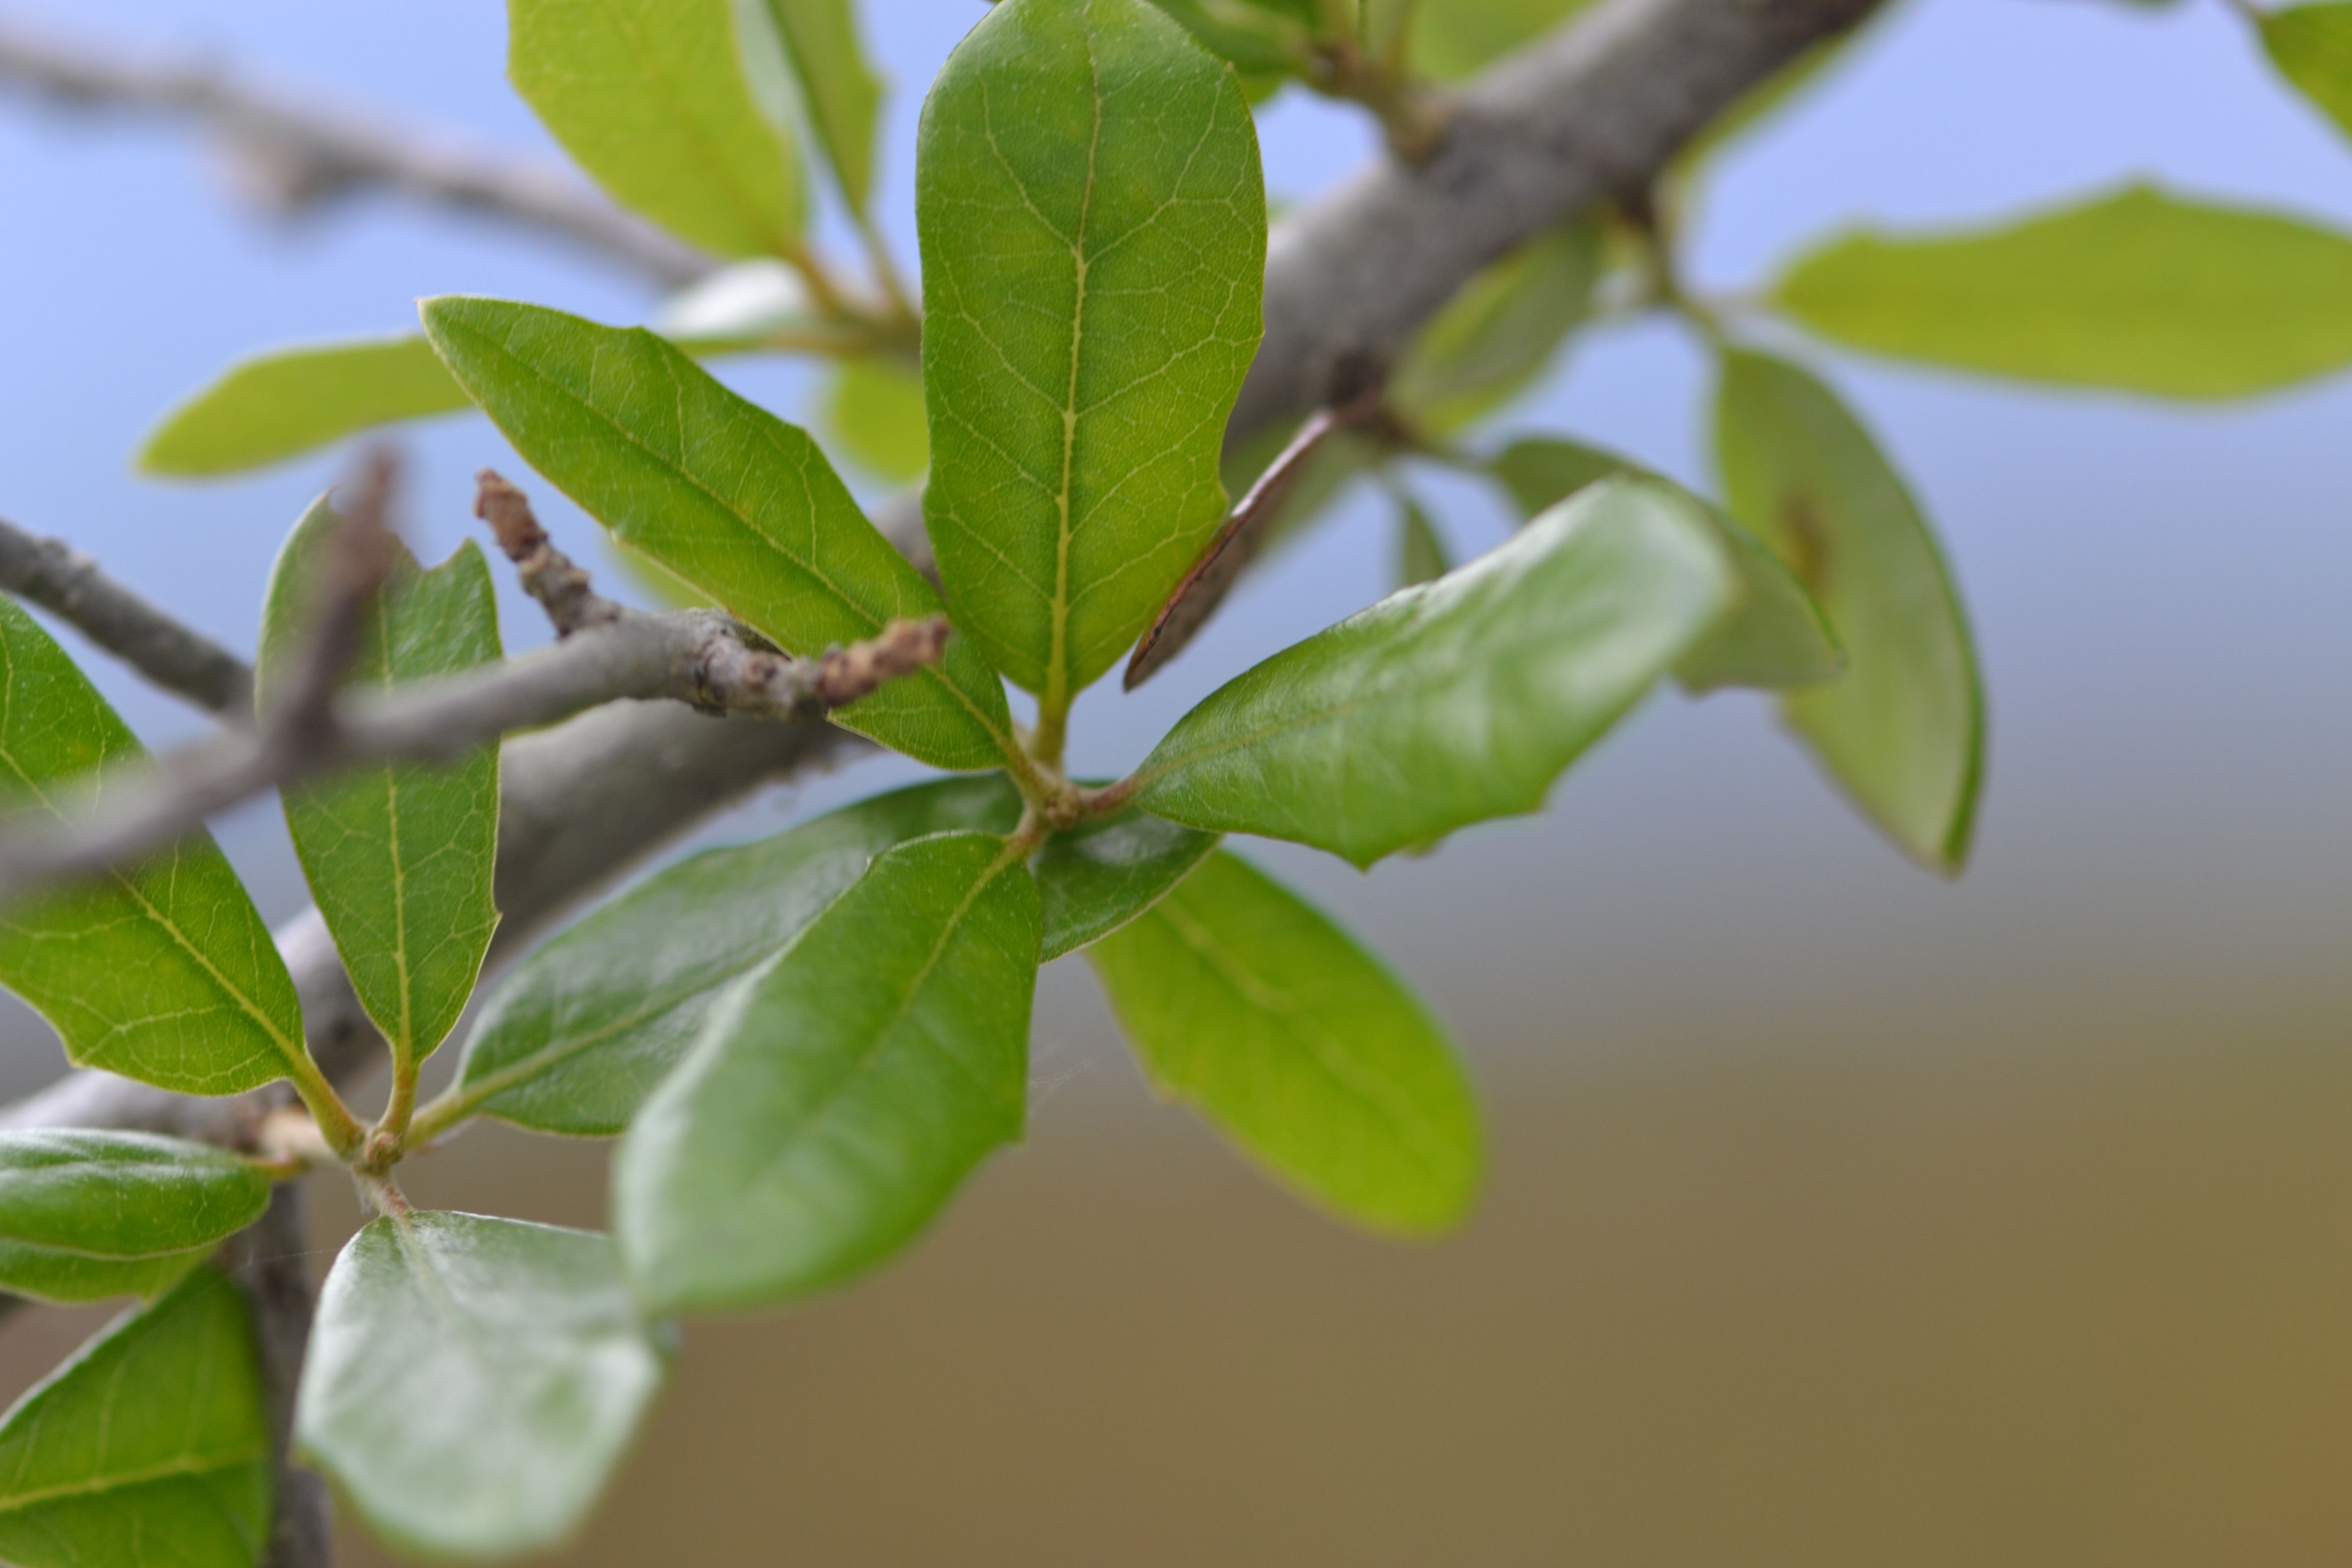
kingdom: Plantae
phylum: Tracheophyta
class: Magnoliopsida
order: Fagales
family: Fagaceae
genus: Quercus
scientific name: Quercus virginiana
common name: Southern Live Oak
